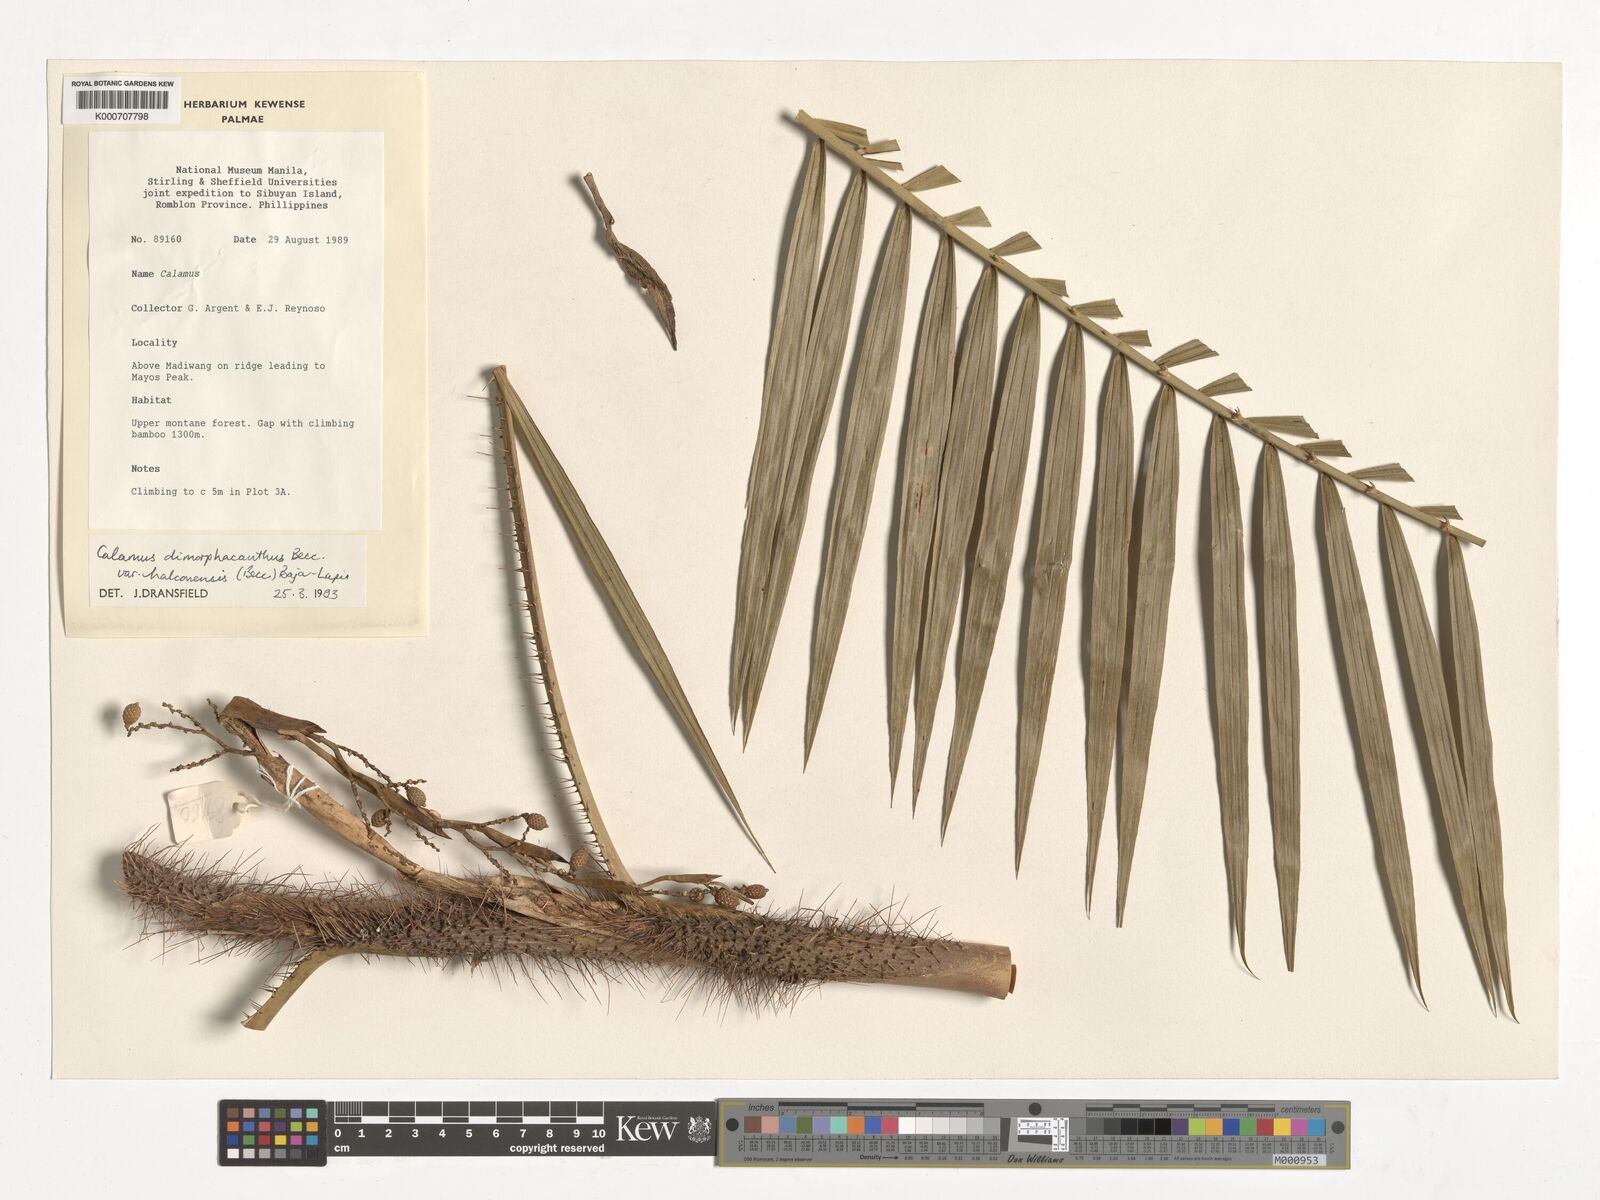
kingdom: Plantae
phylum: Tracheophyta
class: Liliopsida
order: Arecales
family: Arecaceae
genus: Calamus
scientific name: Calamus siphonospathus
